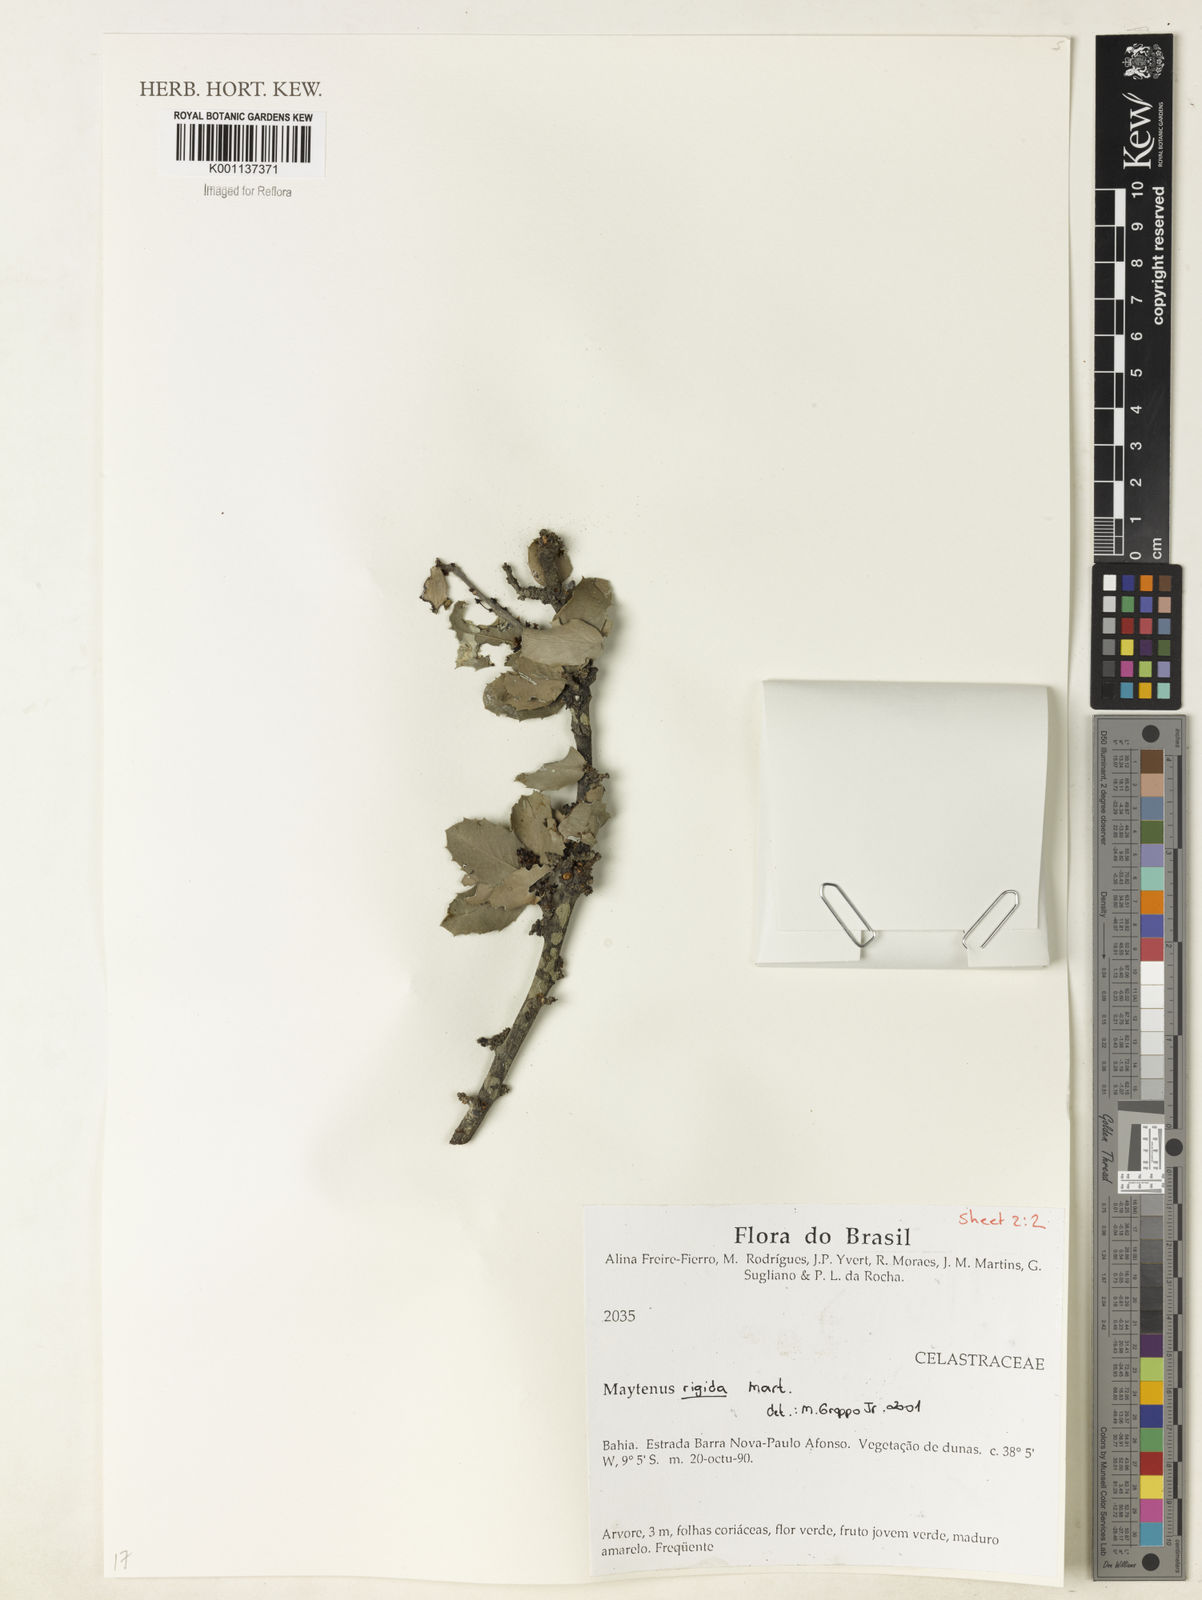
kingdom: Plantae
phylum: Tracheophyta
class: Magnoliopsida
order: Celastrales
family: Celastraceae
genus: Monteverdia
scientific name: Monteverdia rigida
